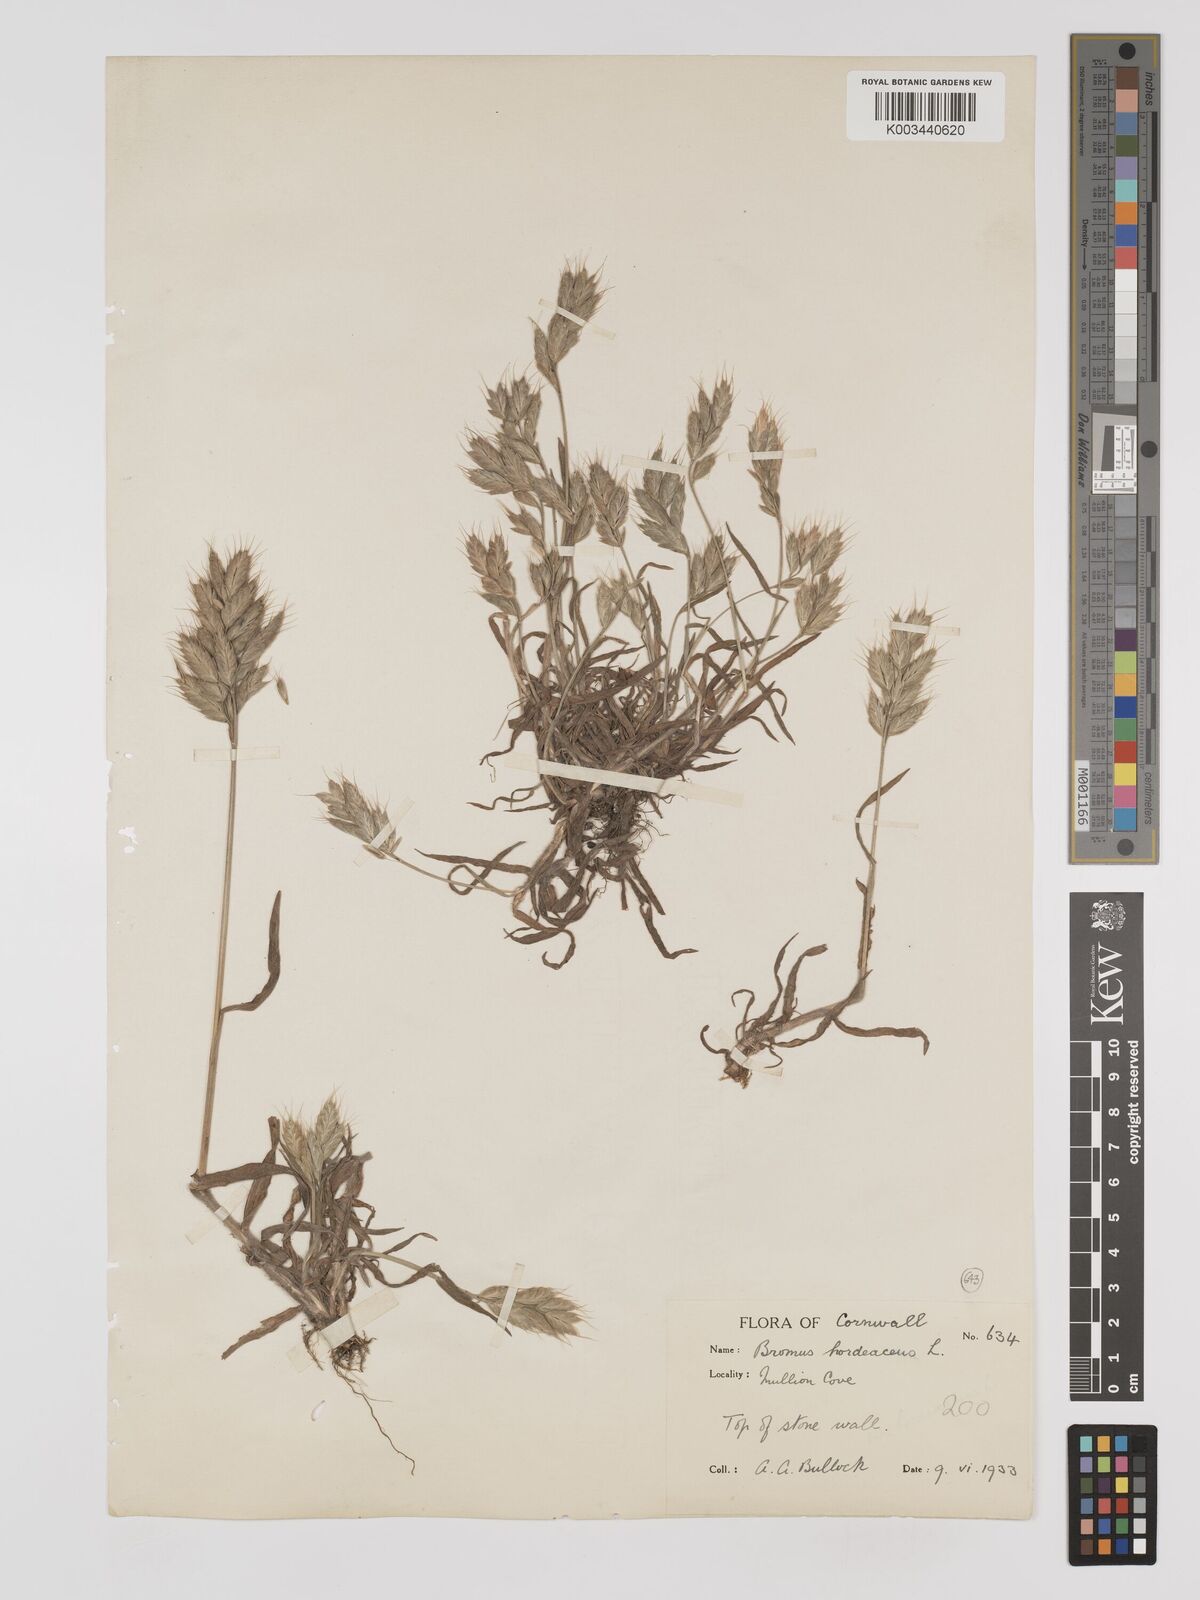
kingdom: Plantae
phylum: Tracheophyta
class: Liliopsida
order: Poales
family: Poaceae
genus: Bromus
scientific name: Bromus hordeaceus
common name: Soft brome
